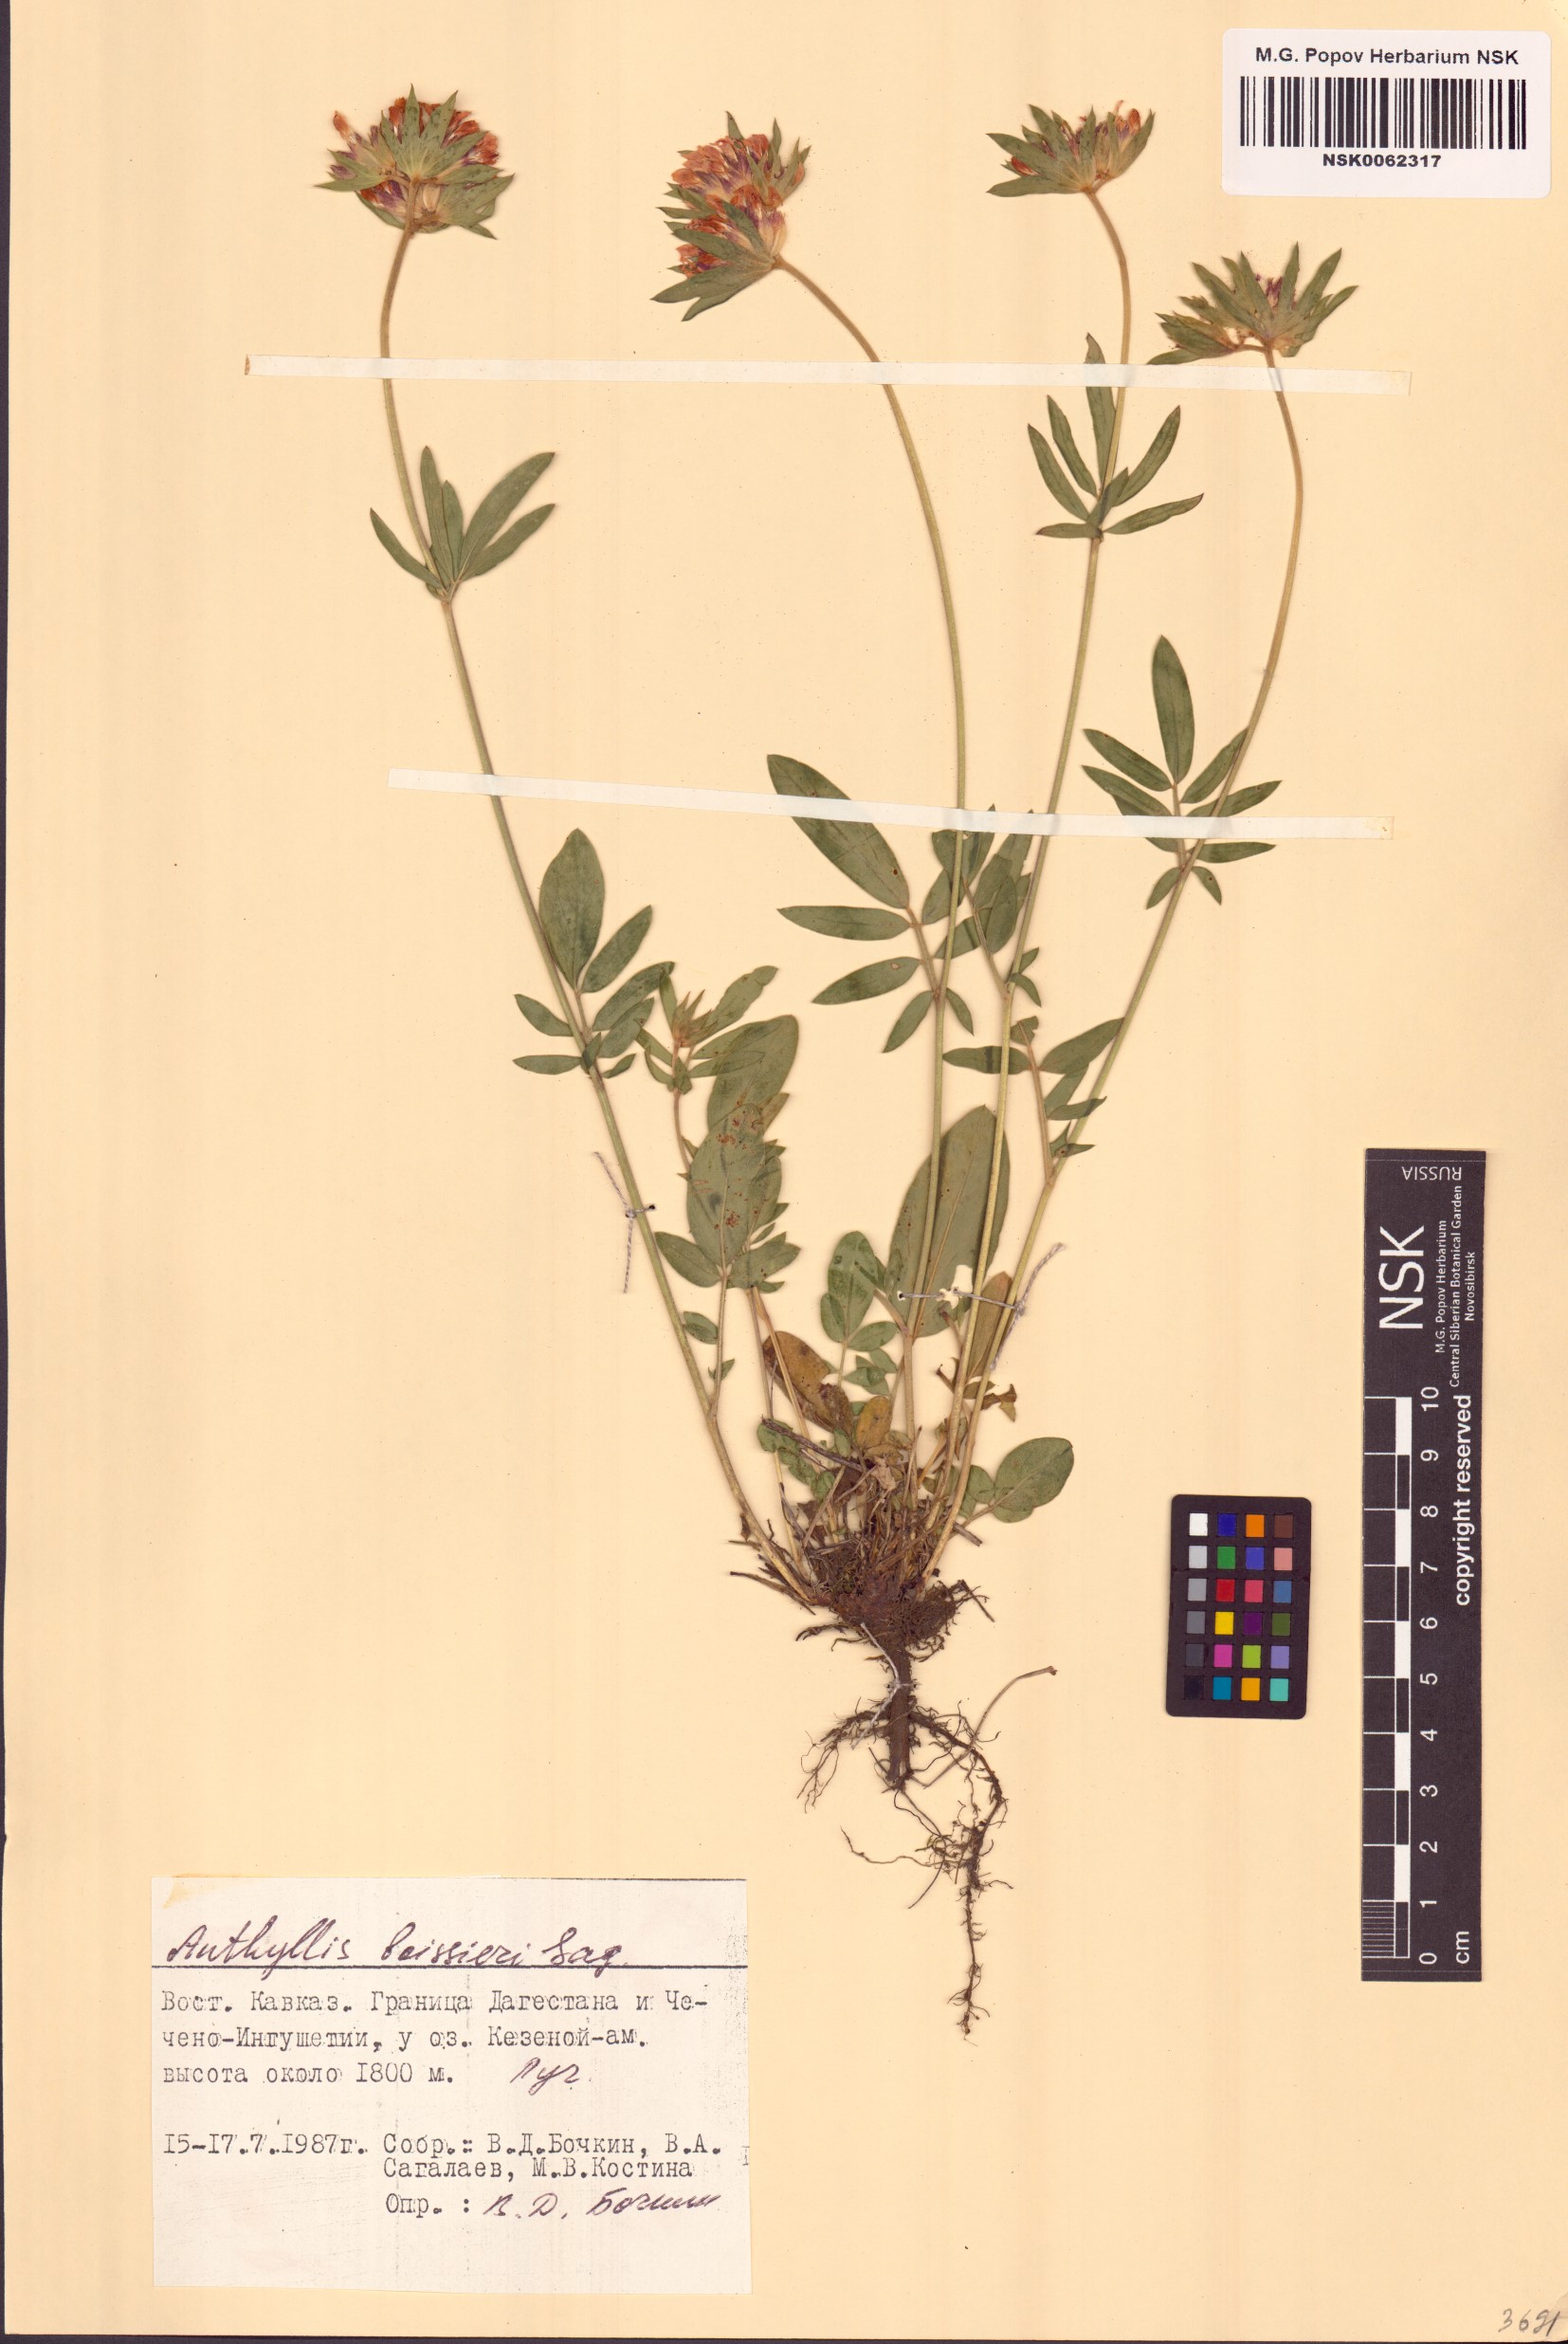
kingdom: Plantae
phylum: Tracheophyta
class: Magnoliopsida
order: Fabales
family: Fabaceae
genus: Anthyllis
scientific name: Anthyllis vulneraria
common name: Kidney vetch
